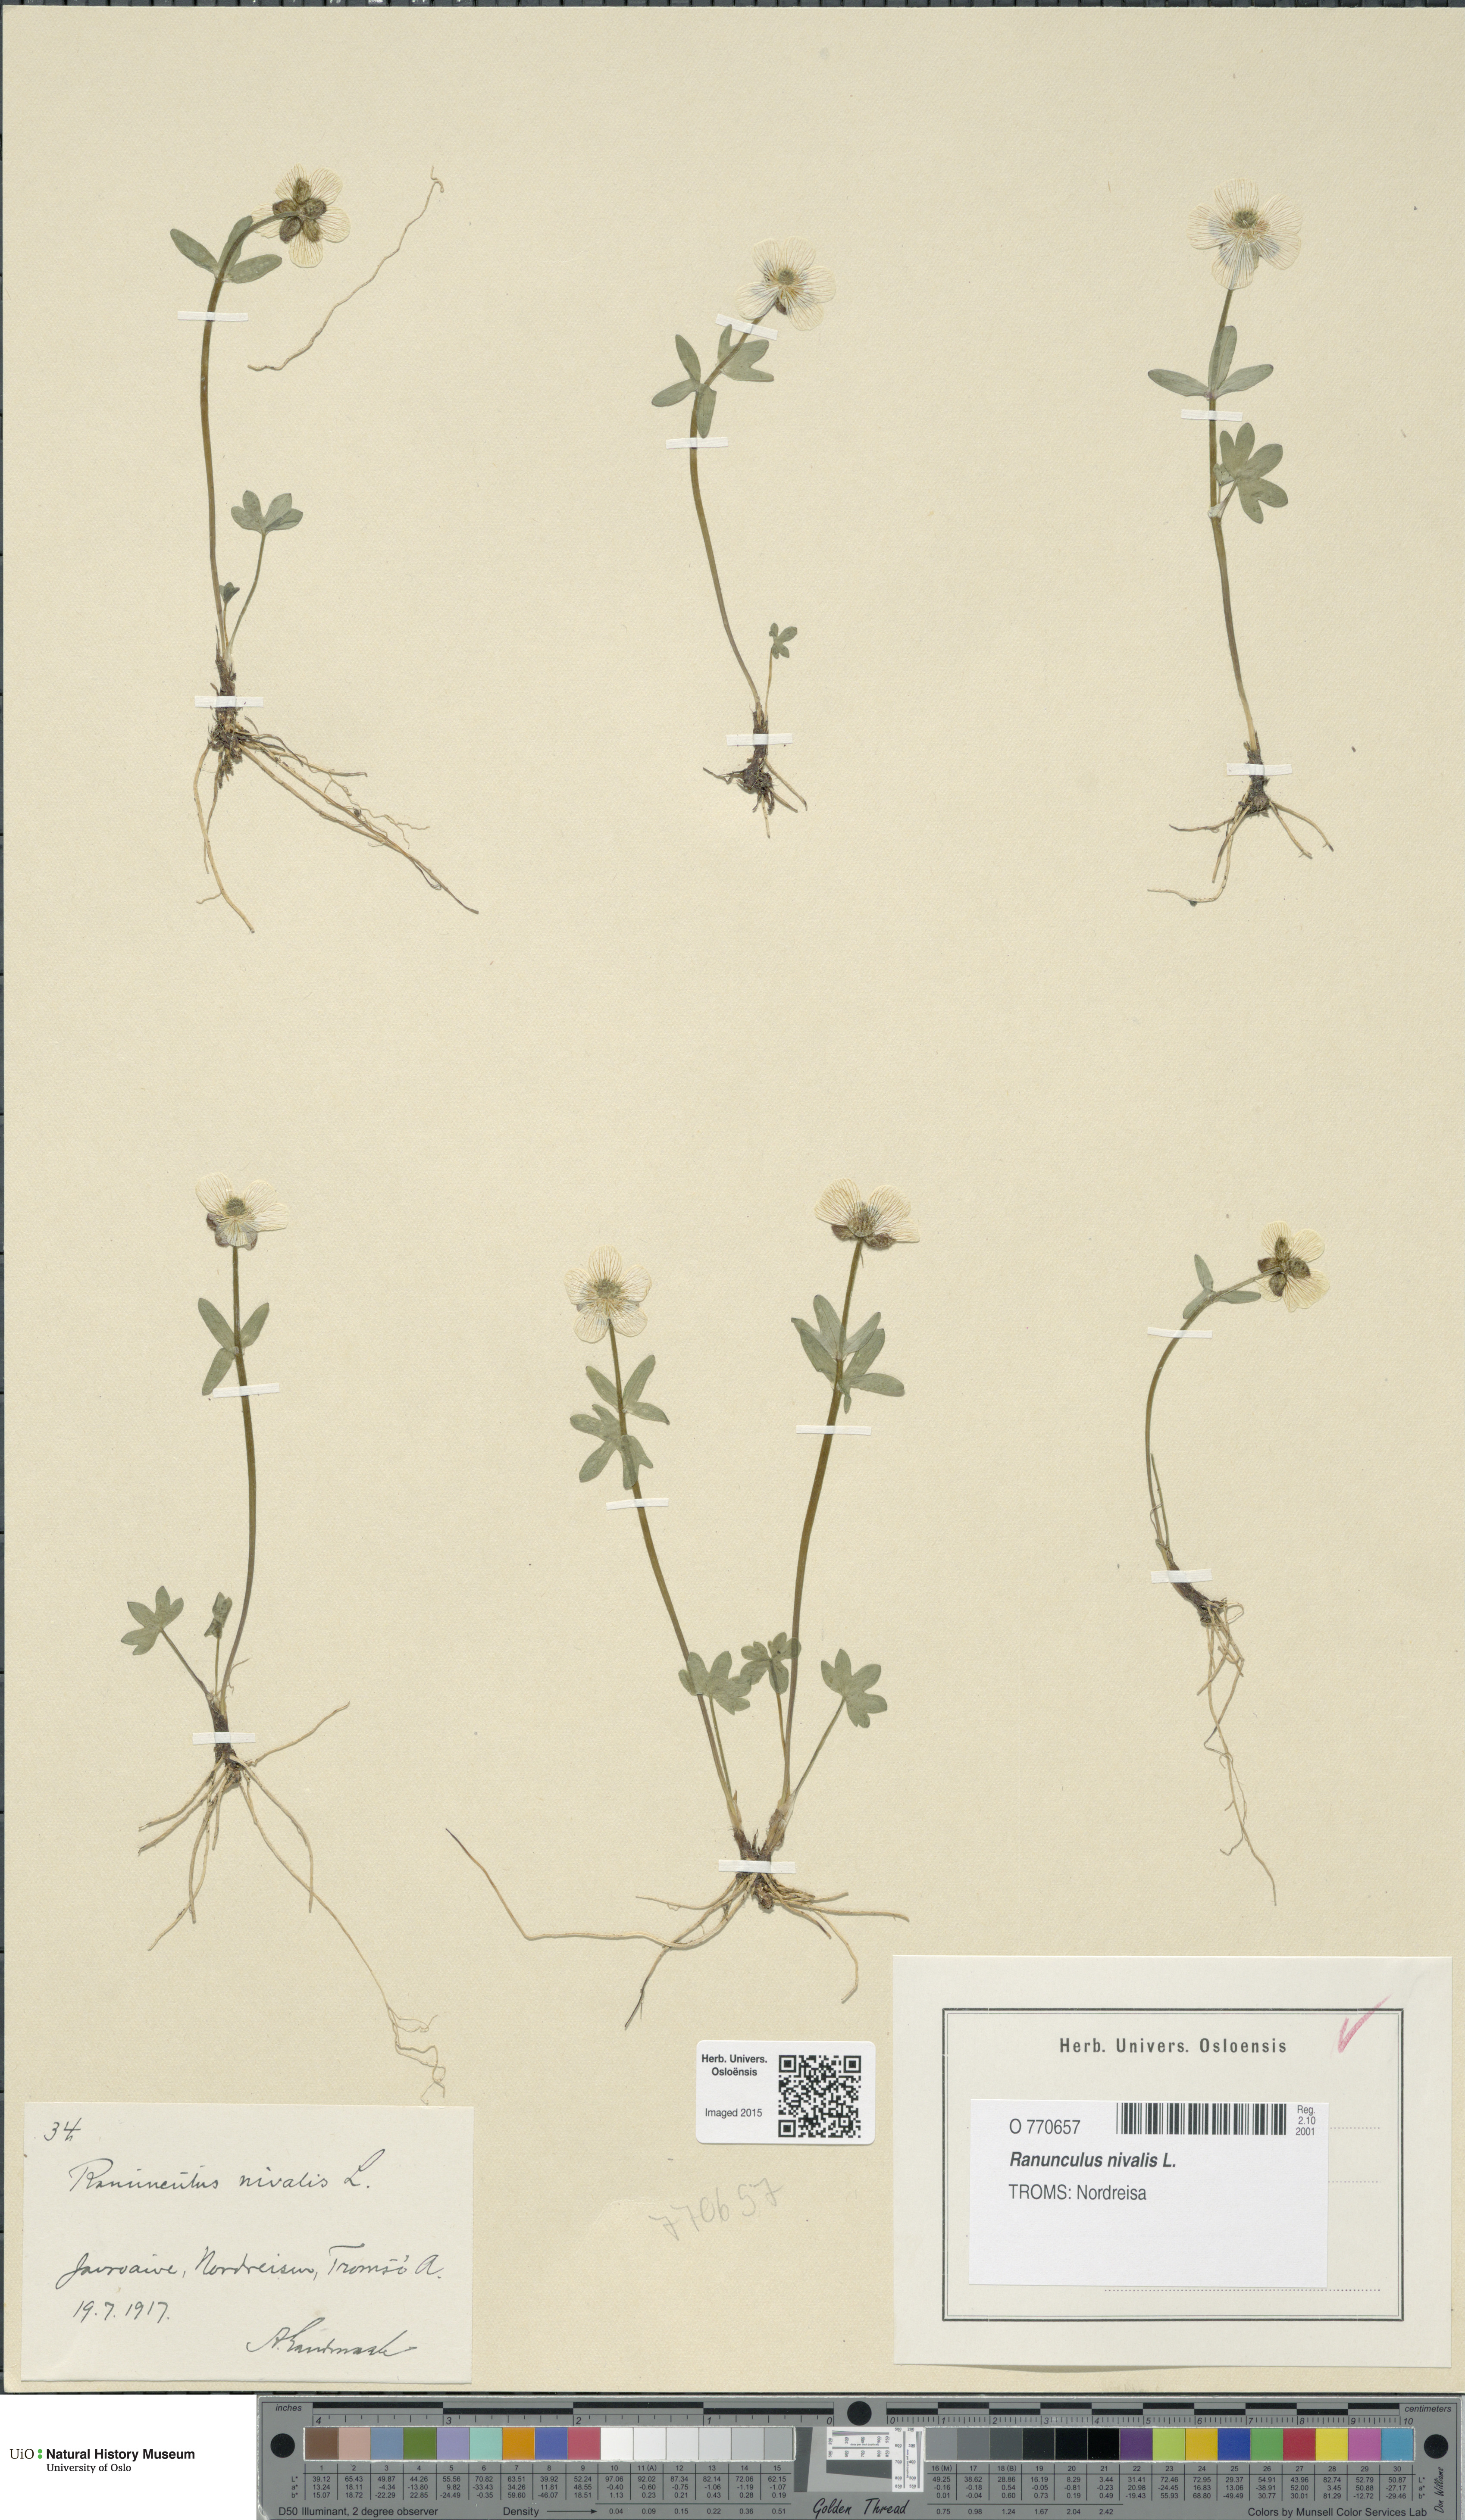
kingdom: Plantae
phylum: Tracheophyta
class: Magnoliopsida
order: Ranunculales
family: Ranunculaceae
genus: Ranunculus
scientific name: Ranunculus nivalis
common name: Snow buttercup
